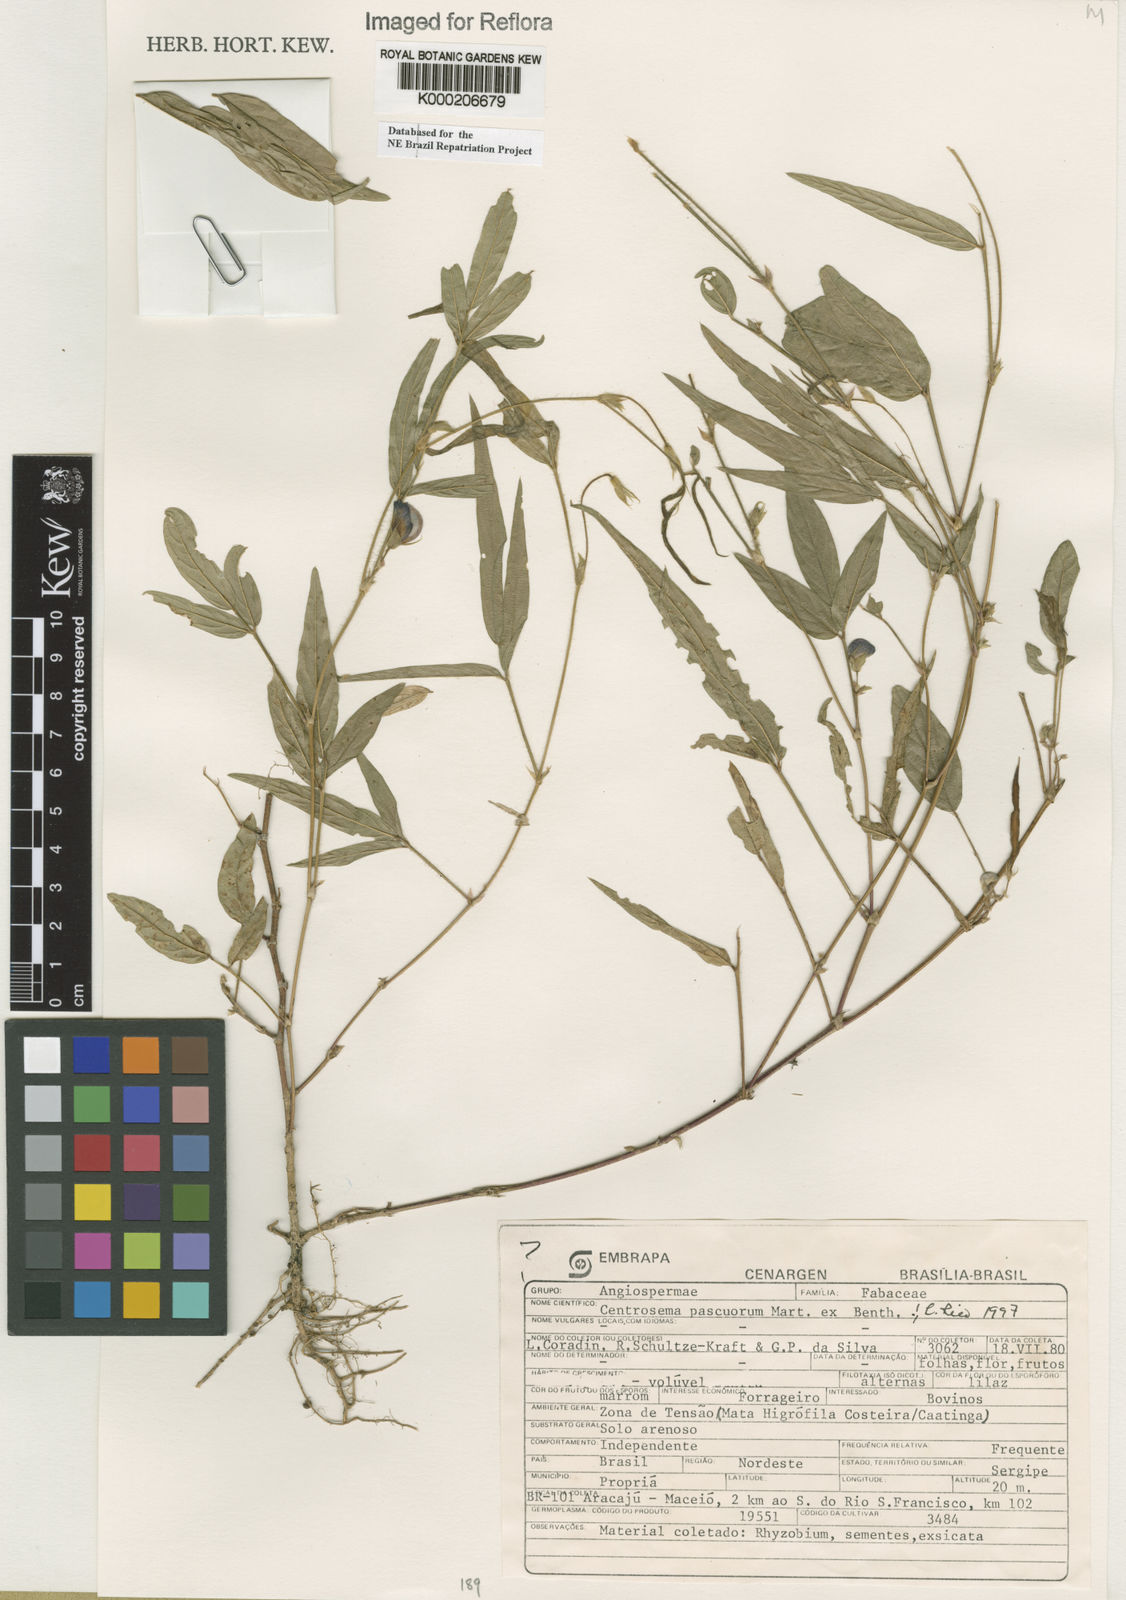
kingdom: Plantae
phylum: Tracheophyta
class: Magnoliopsida
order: Fabales
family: Fabaceae
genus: Centrosema
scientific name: Centrosema pascuorum
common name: Centurion
